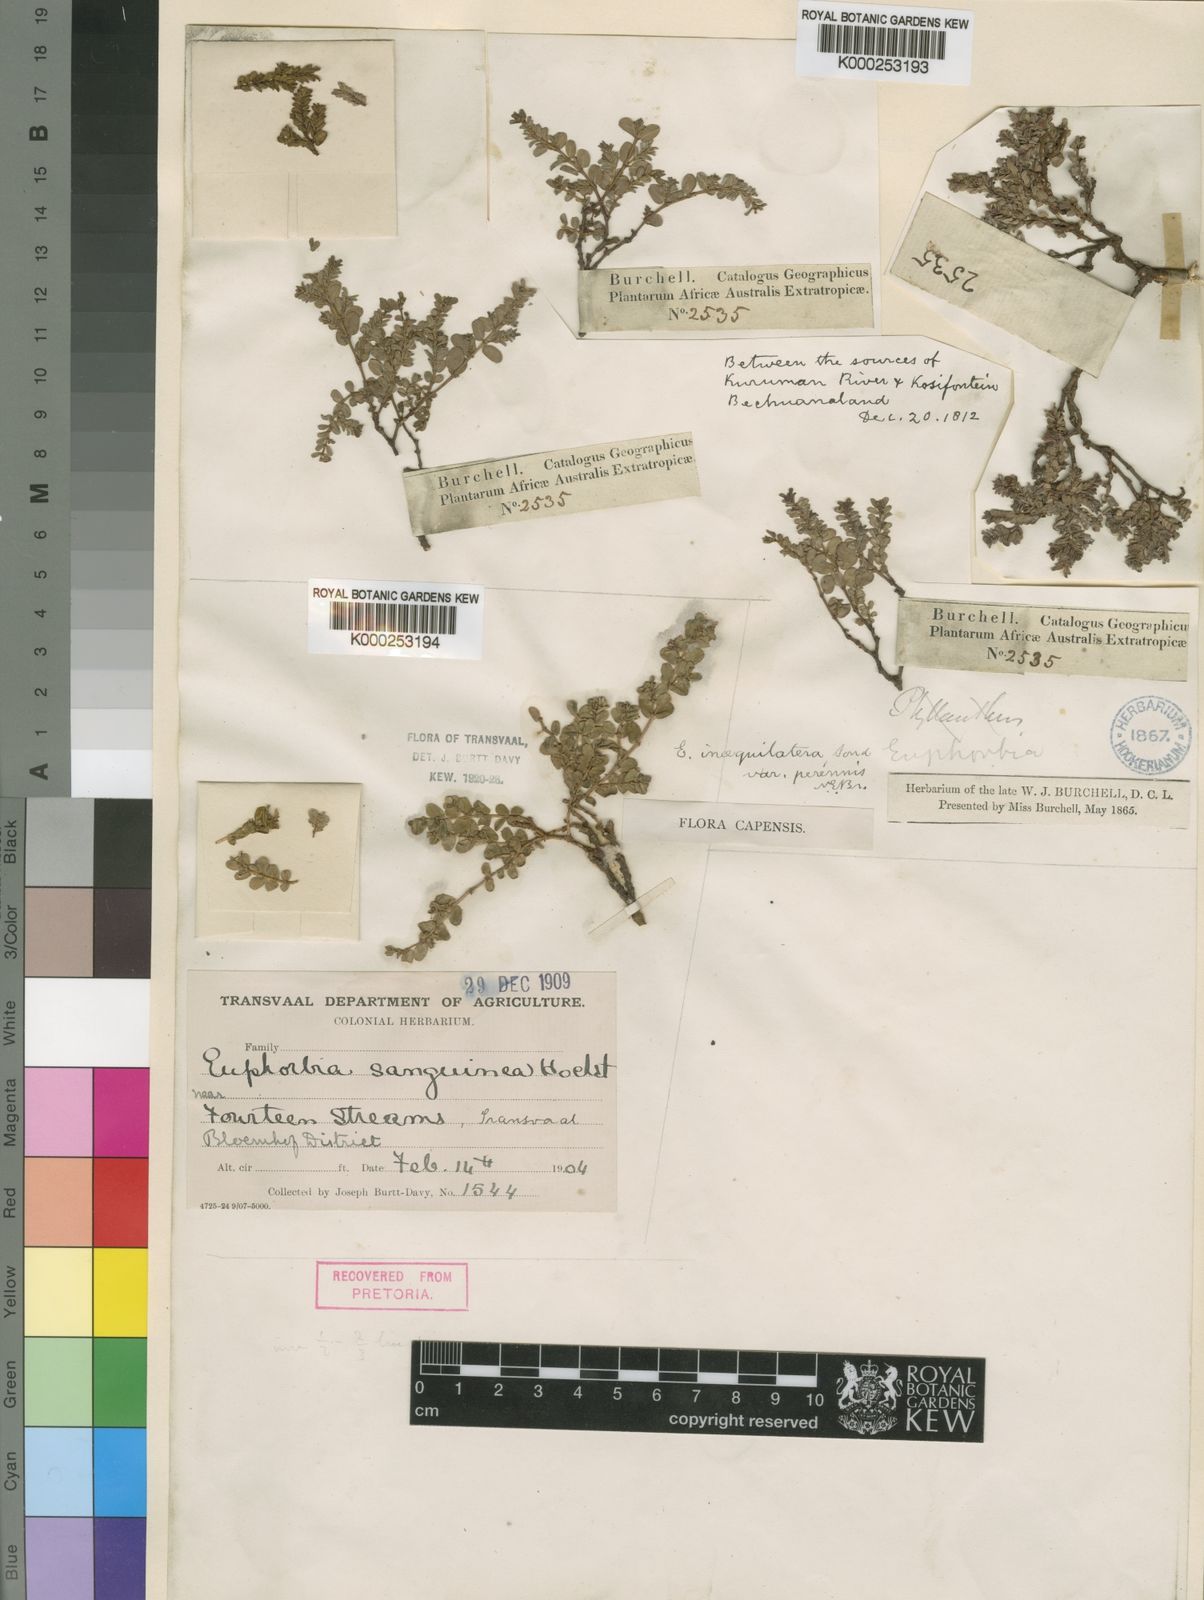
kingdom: Plantae
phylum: Tracheophyta
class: Magnoliopsida
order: Malpighiales
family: Euphorbiaceae
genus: Euphorbia
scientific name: Euphorbia inaequilatera
